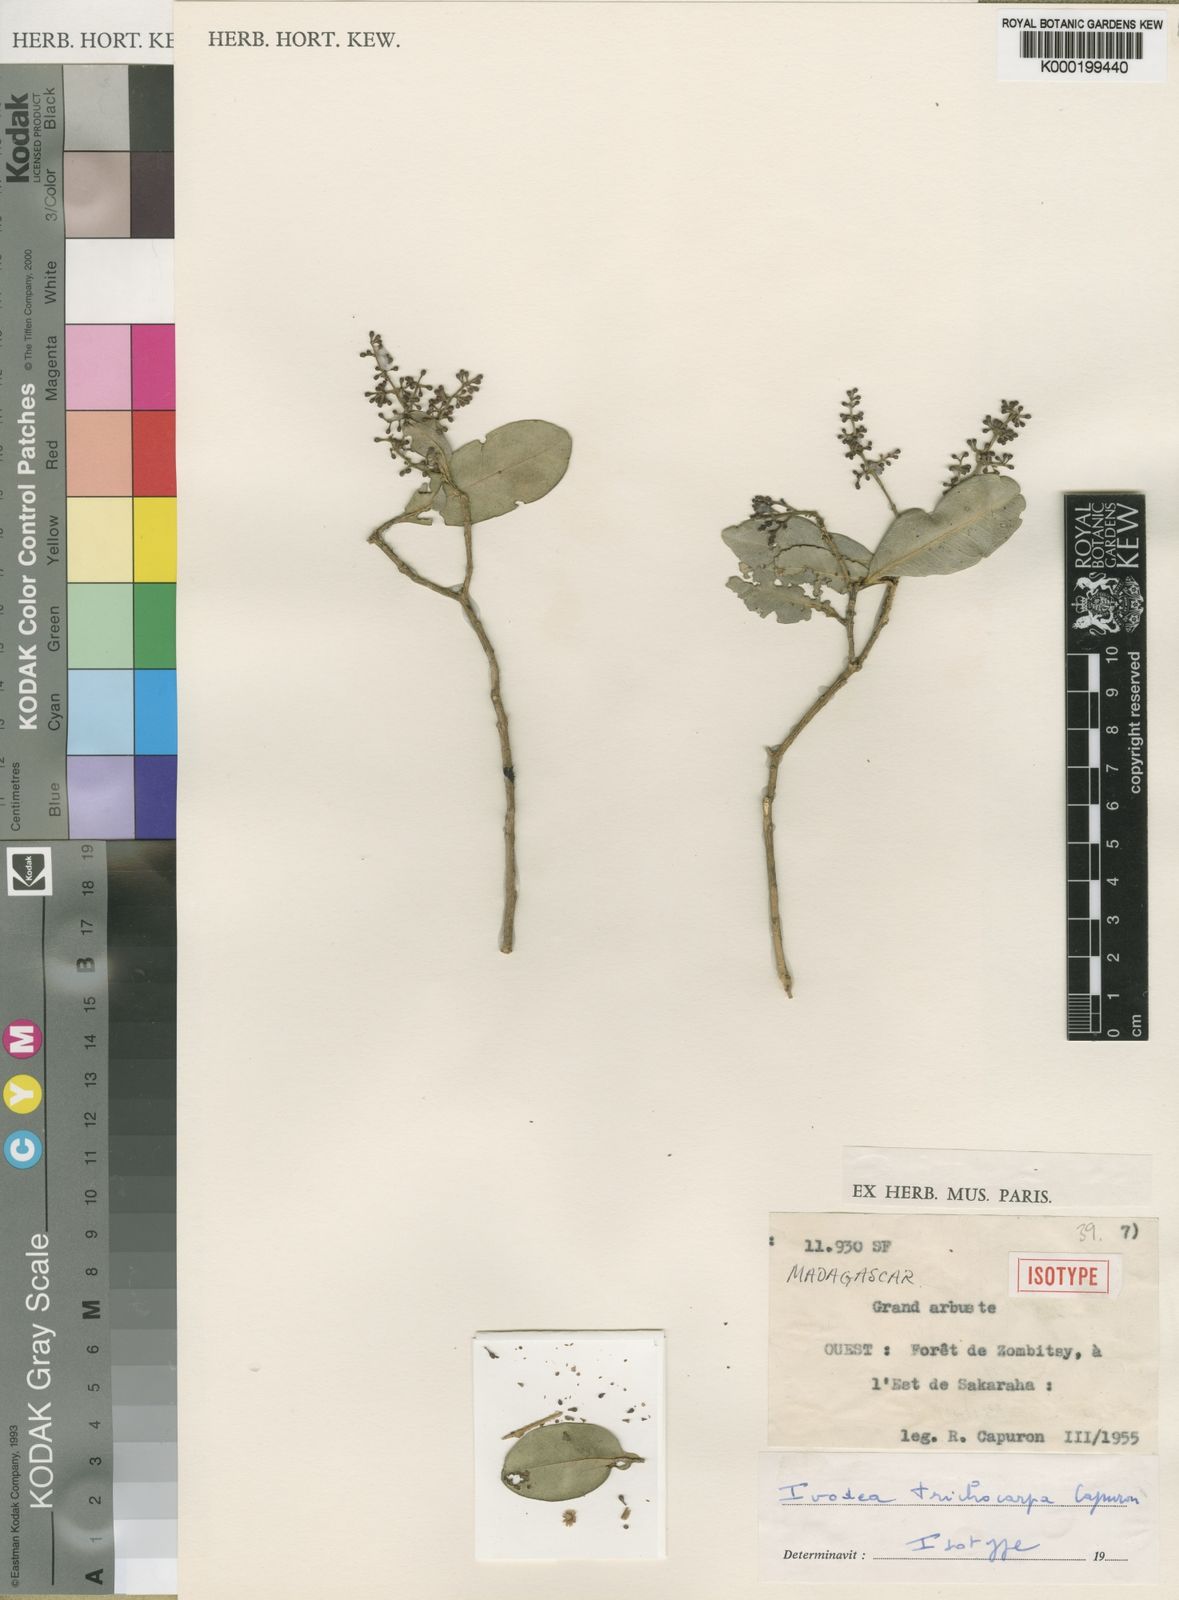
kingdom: Plantae
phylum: Tracheophyta
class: Magnoliopsida
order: Sapindales
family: Rutaceae
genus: Ivodea
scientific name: Ivodea lanceolata
